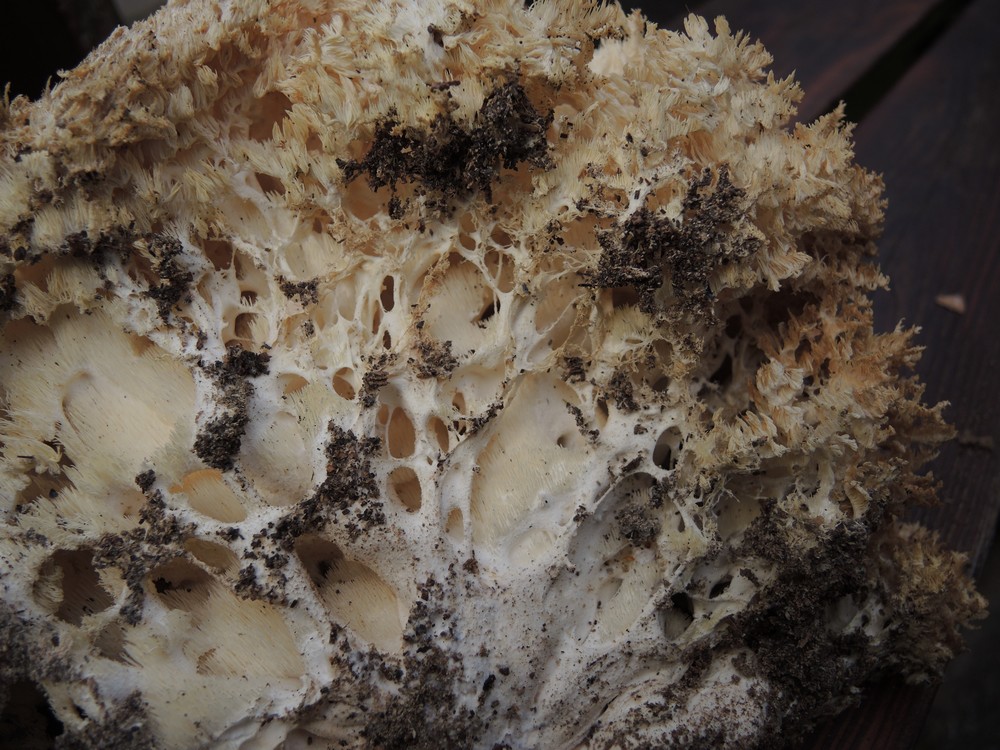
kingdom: Fungi
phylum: Basidiomycota
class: Agaricomycetes
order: Russulales
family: Hericiaceae
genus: Hericium
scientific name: Hericium coralloides
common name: koralpigsvamp
